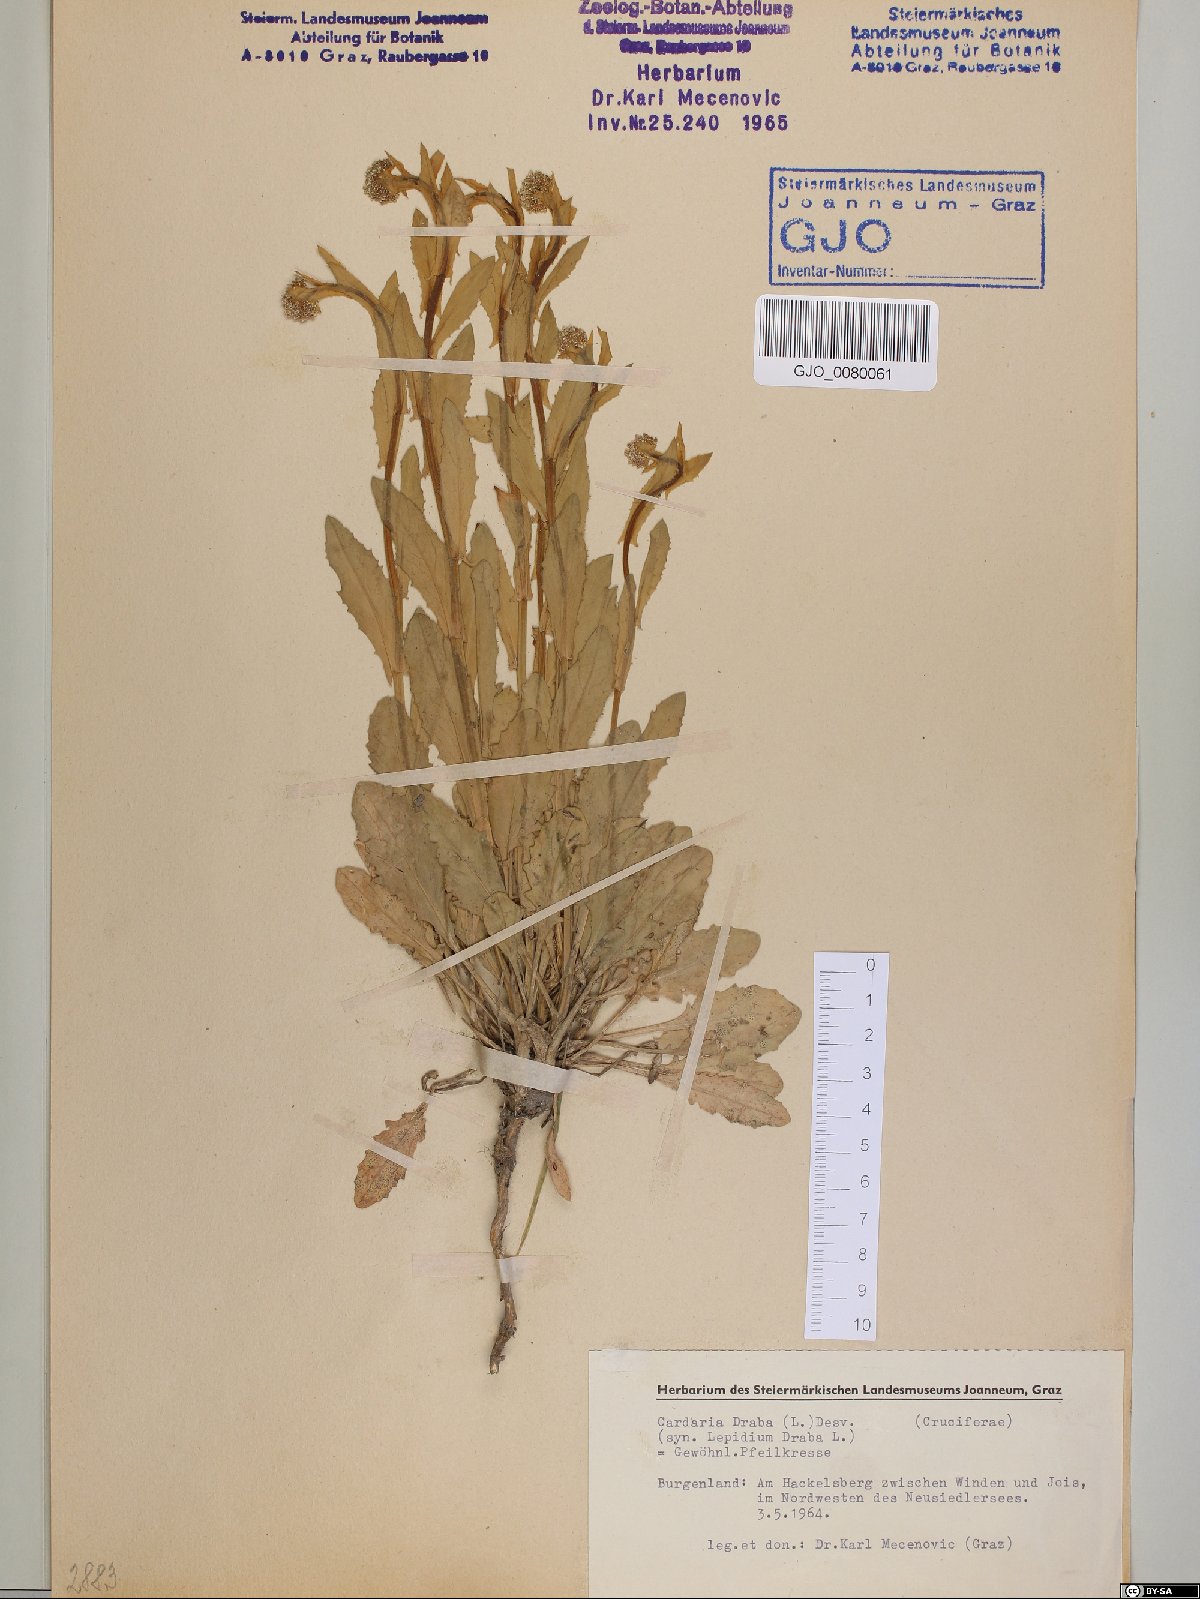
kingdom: Plantae
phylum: Tracheophyta
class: Magnoliopsida
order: Brassicales
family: Brassicaceae
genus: Lepidium
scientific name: Lepidium draba
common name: Hoary cress
